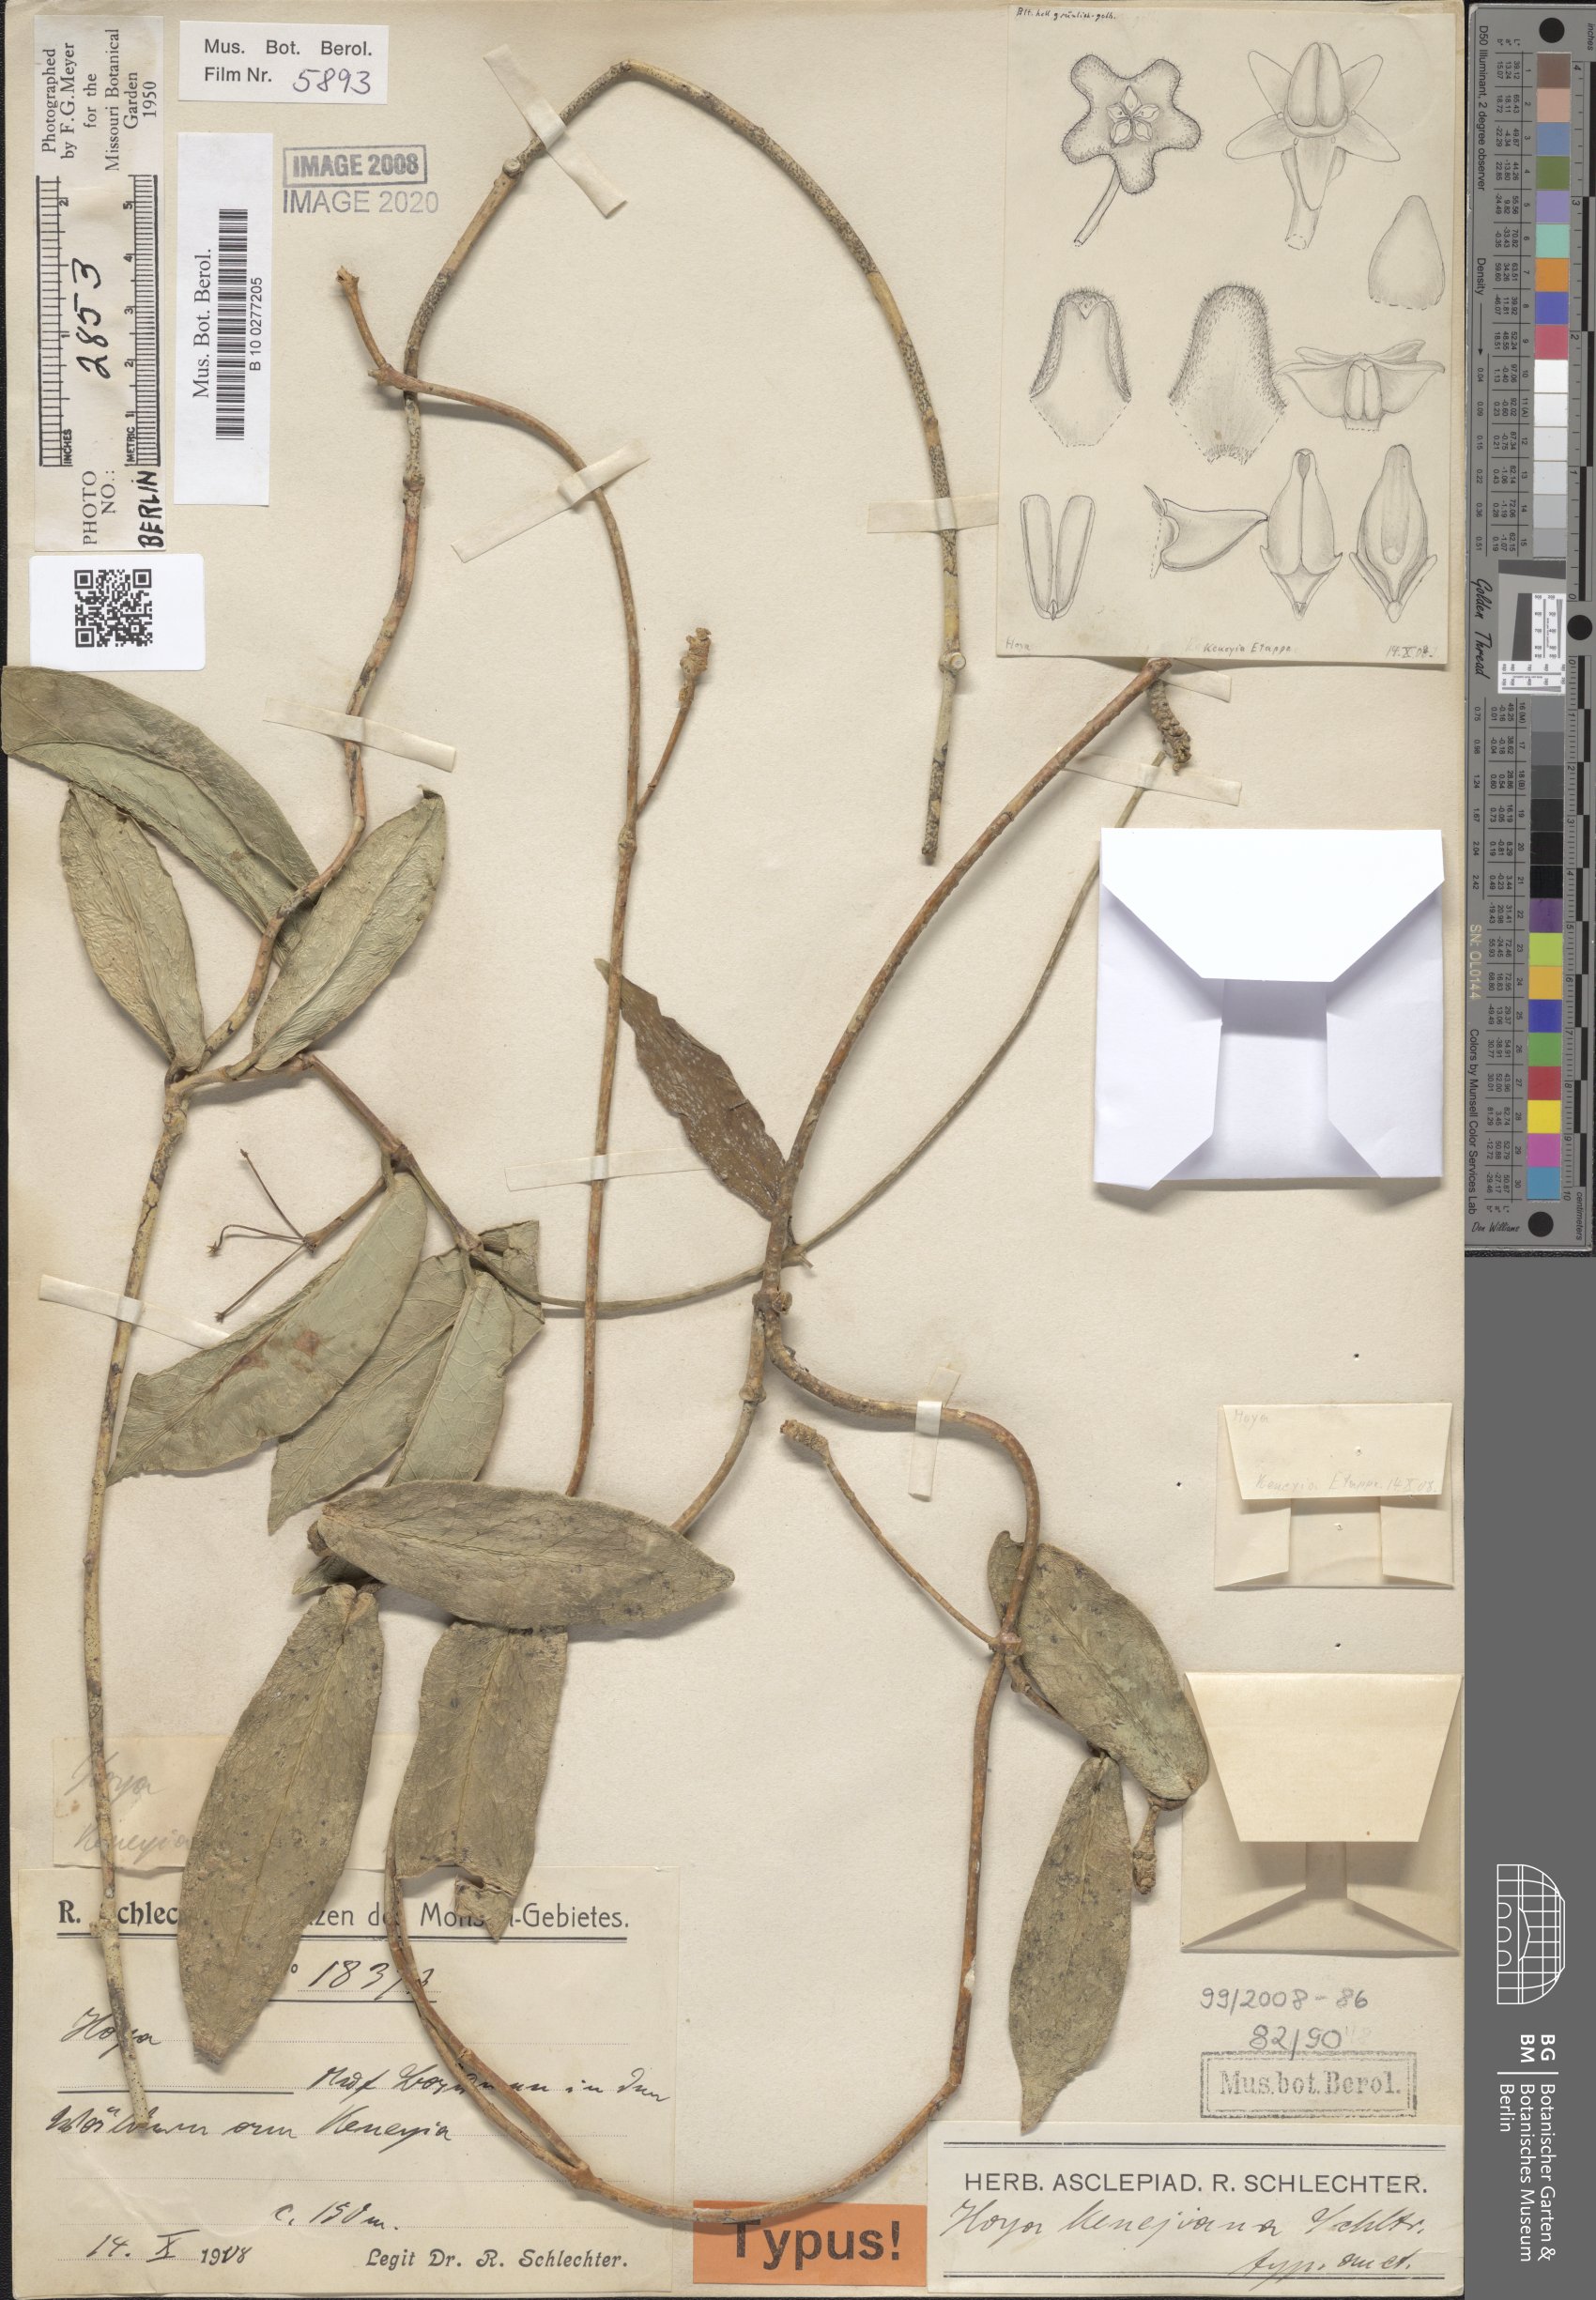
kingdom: Plantae
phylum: Tracheophyta
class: Magnoliopsida
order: Gentianales
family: Apocynaceae
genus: Hoya
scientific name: Hoya ischnopus
